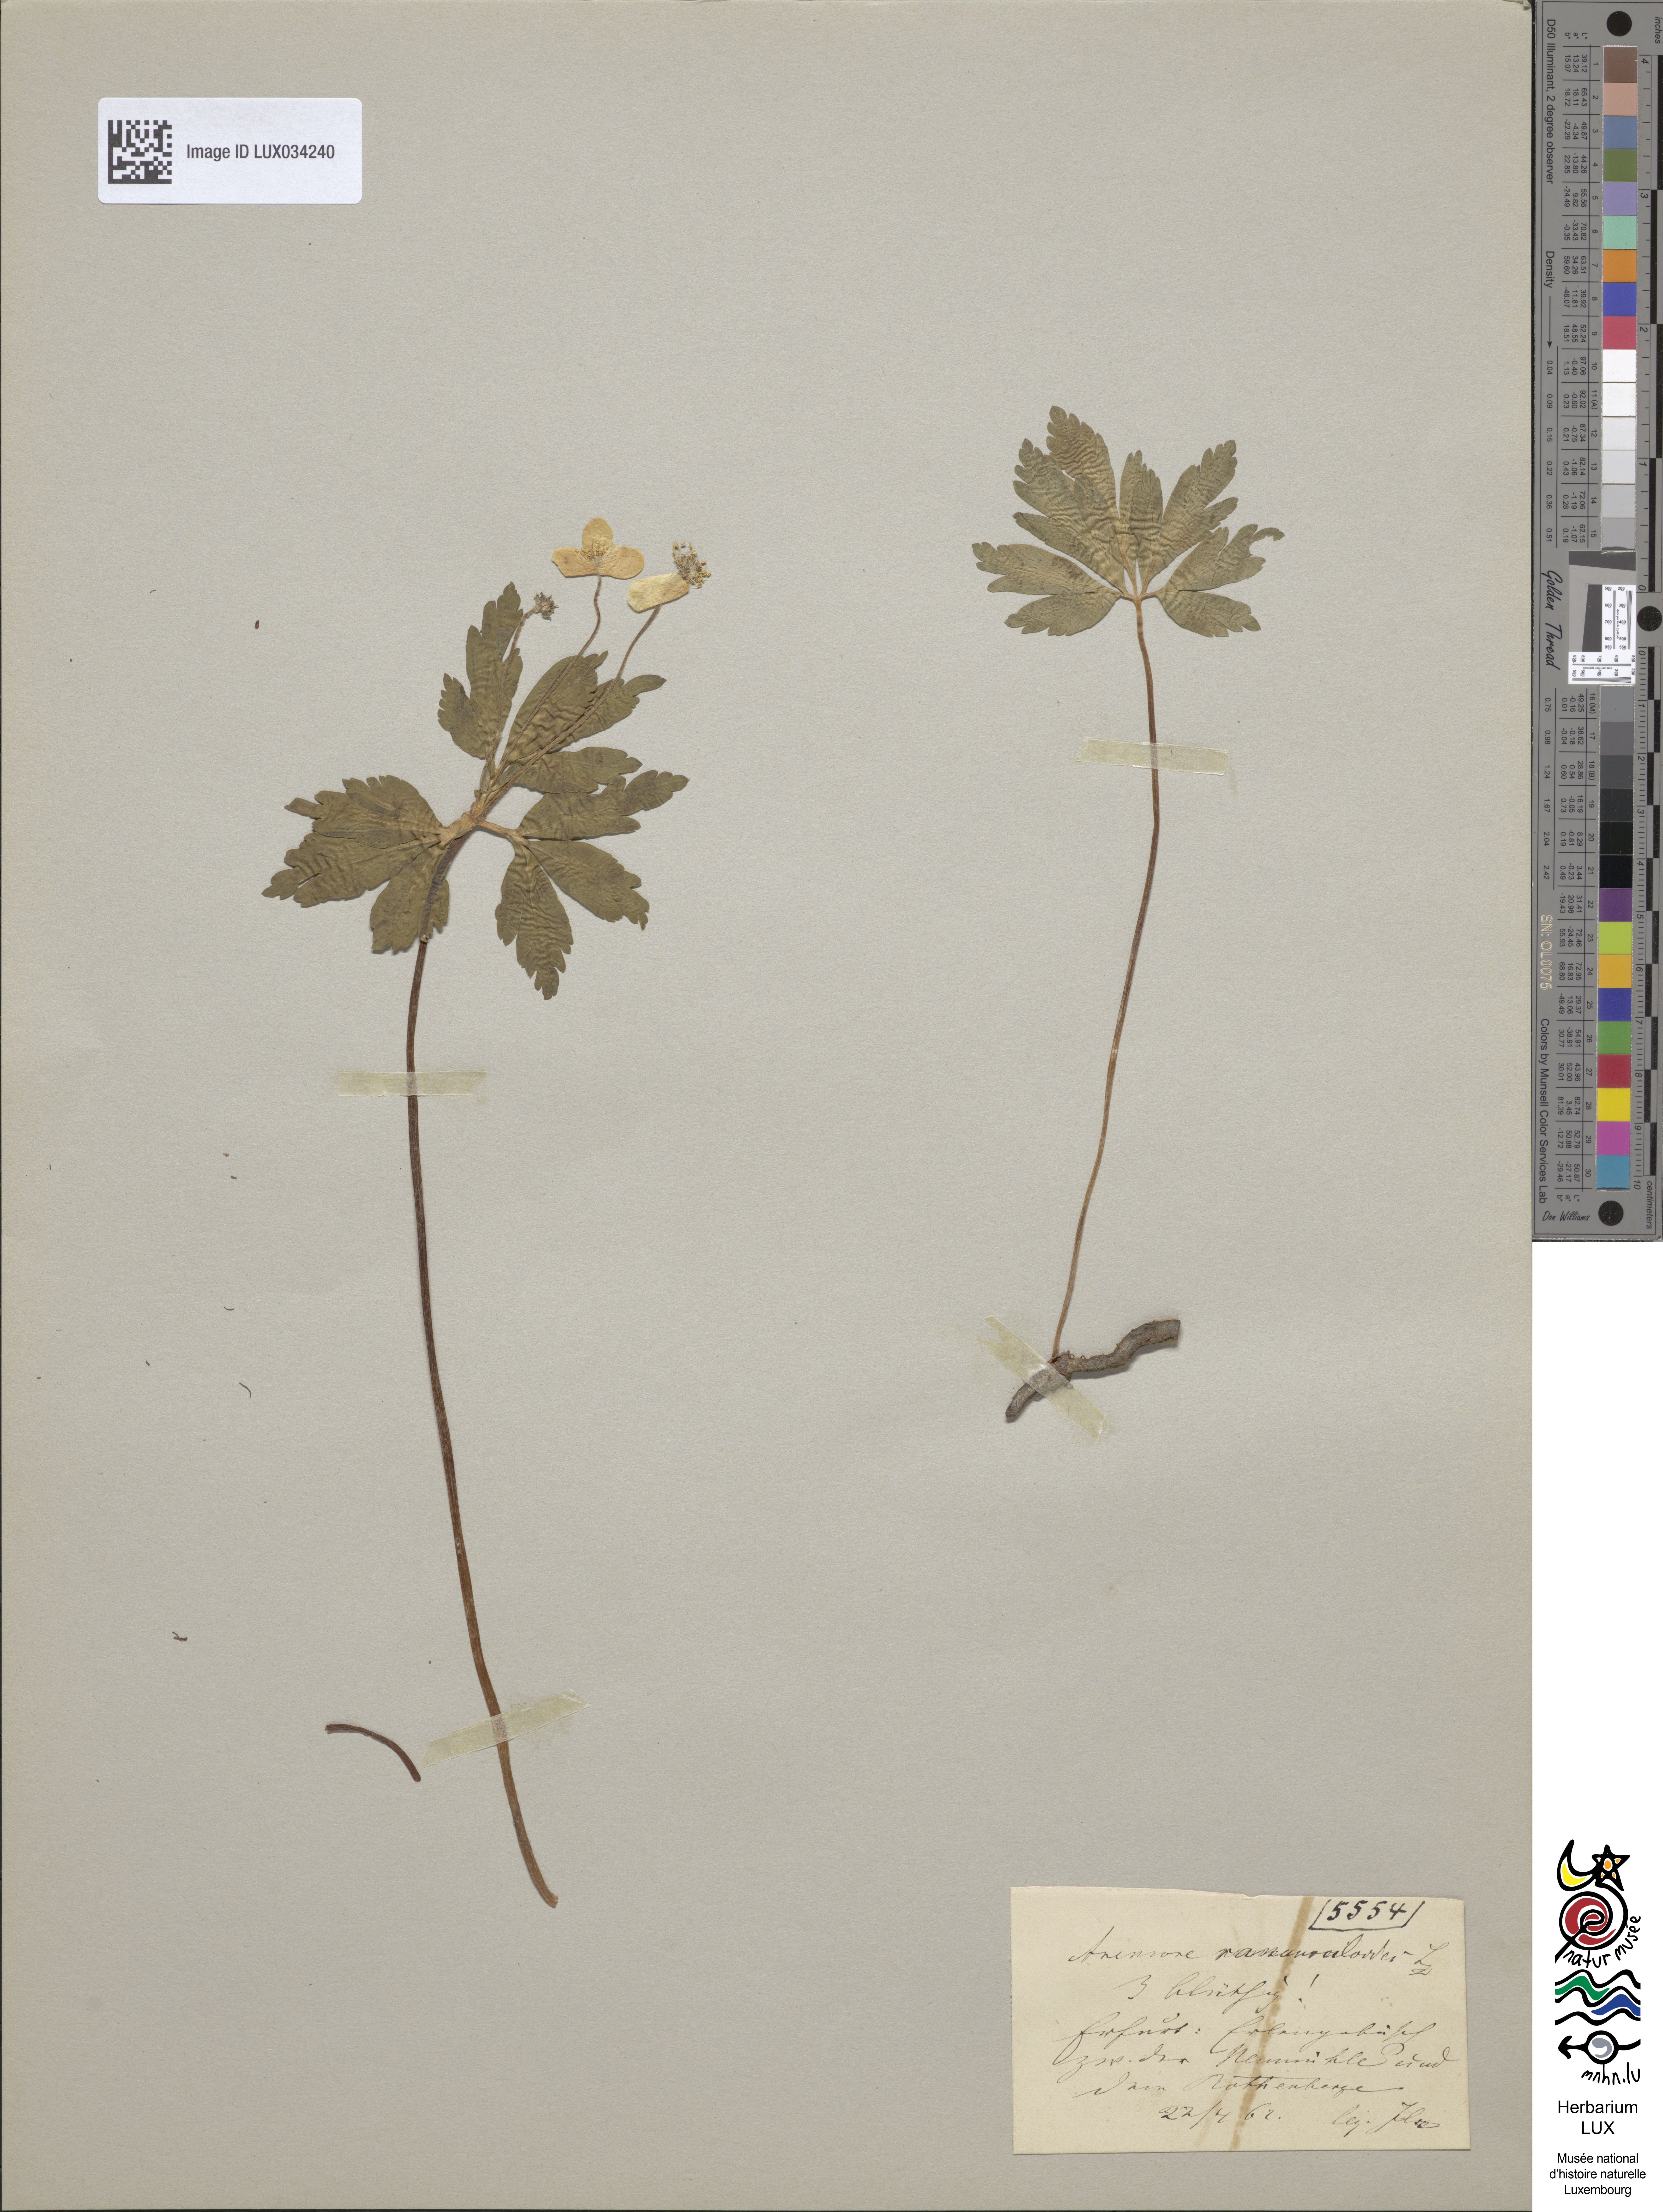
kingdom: Plantae
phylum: Tracheophyta
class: Magnoliopsida
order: Ranunculales
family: Ranunculaceae
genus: Anemone
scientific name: Anemone ranunculoides
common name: Yellow anemone
